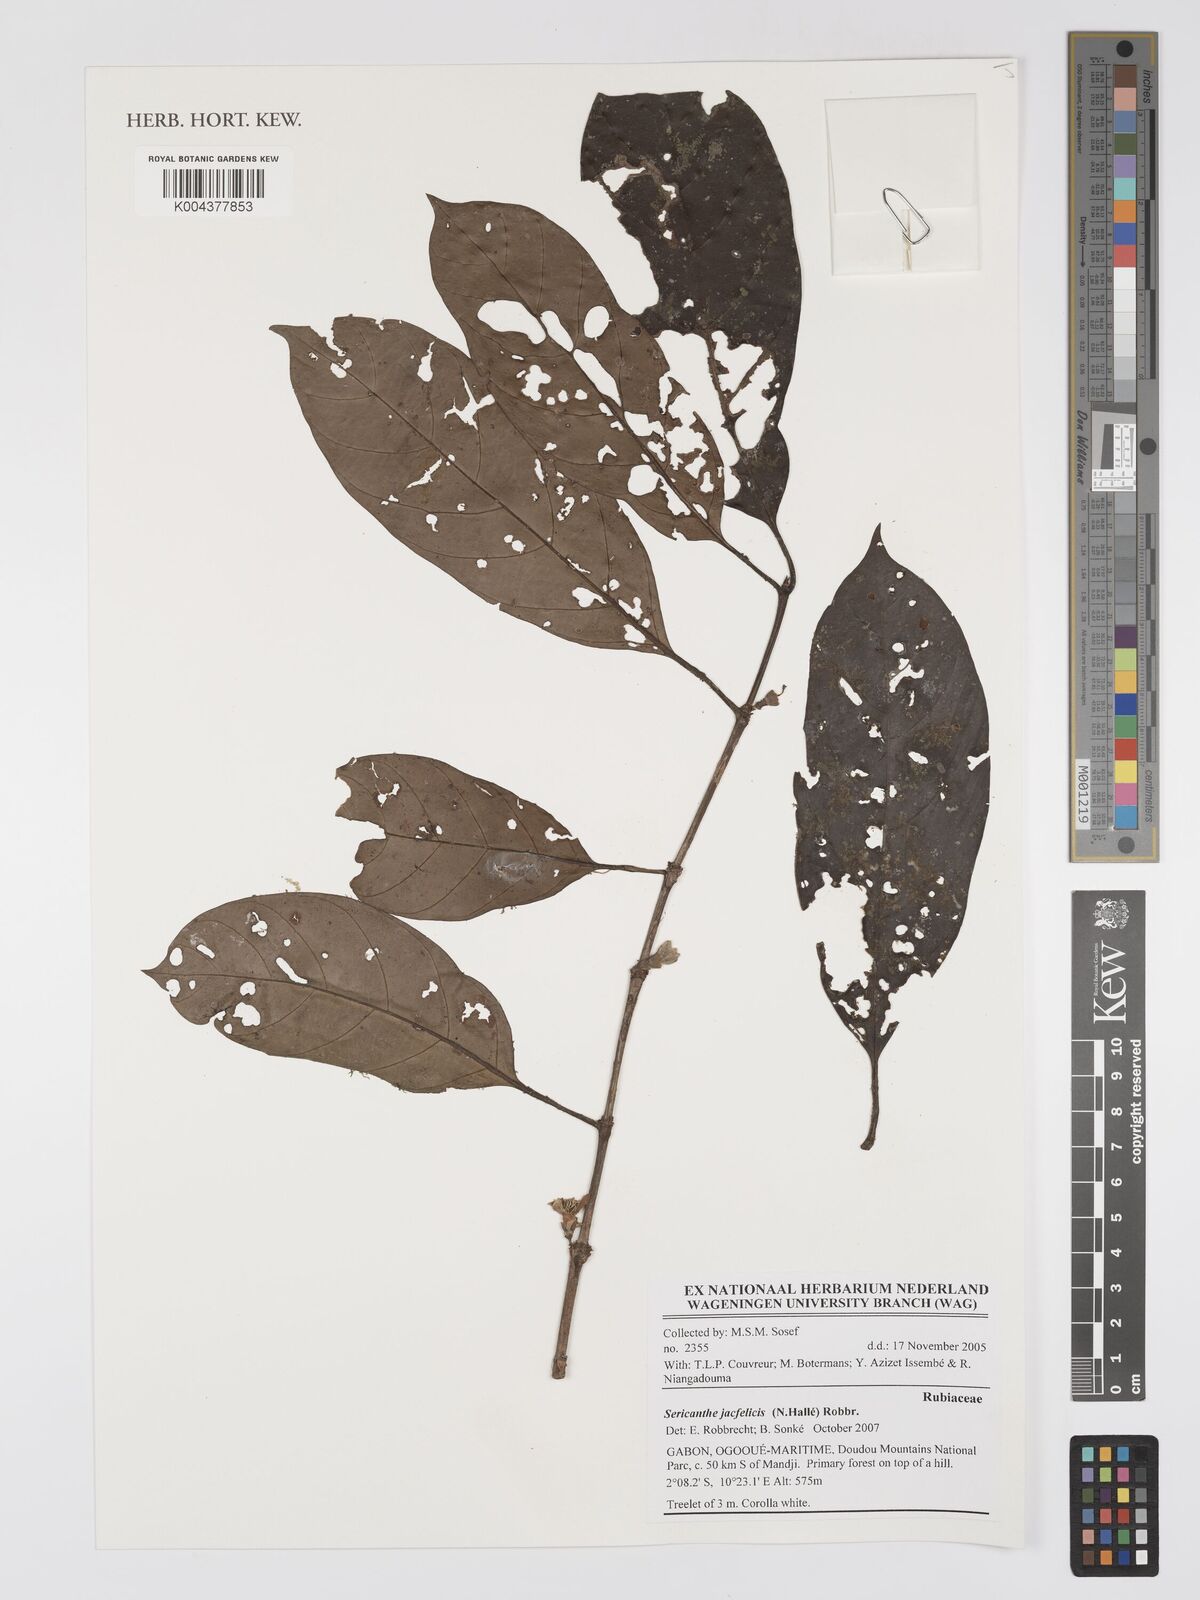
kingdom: Plantae
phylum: Tracheophyta
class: Magnoliopsida
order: Gentianales
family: Rubiaceae
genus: Sericanthe
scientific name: Sericanthe jacfelicis
